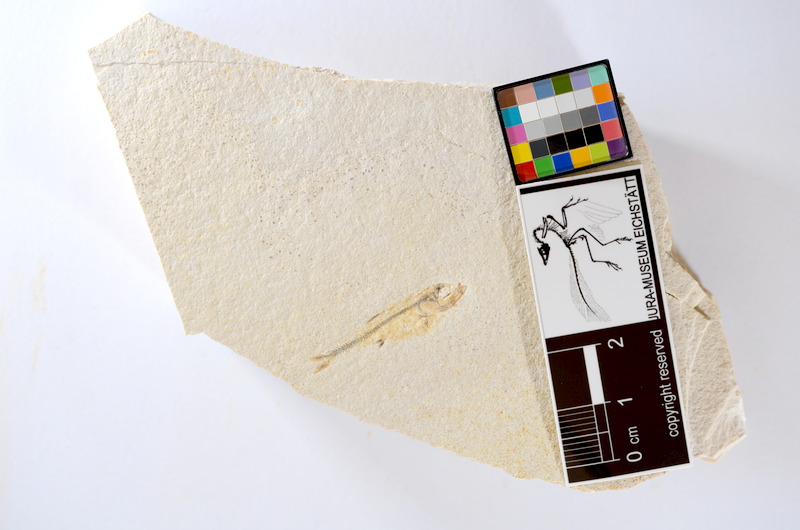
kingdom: Animalia
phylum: Chordata
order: Salmoniformes
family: Orthogonikleithridae
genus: Orthogonikleithrus
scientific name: Orthogonikleithrus hoelli
